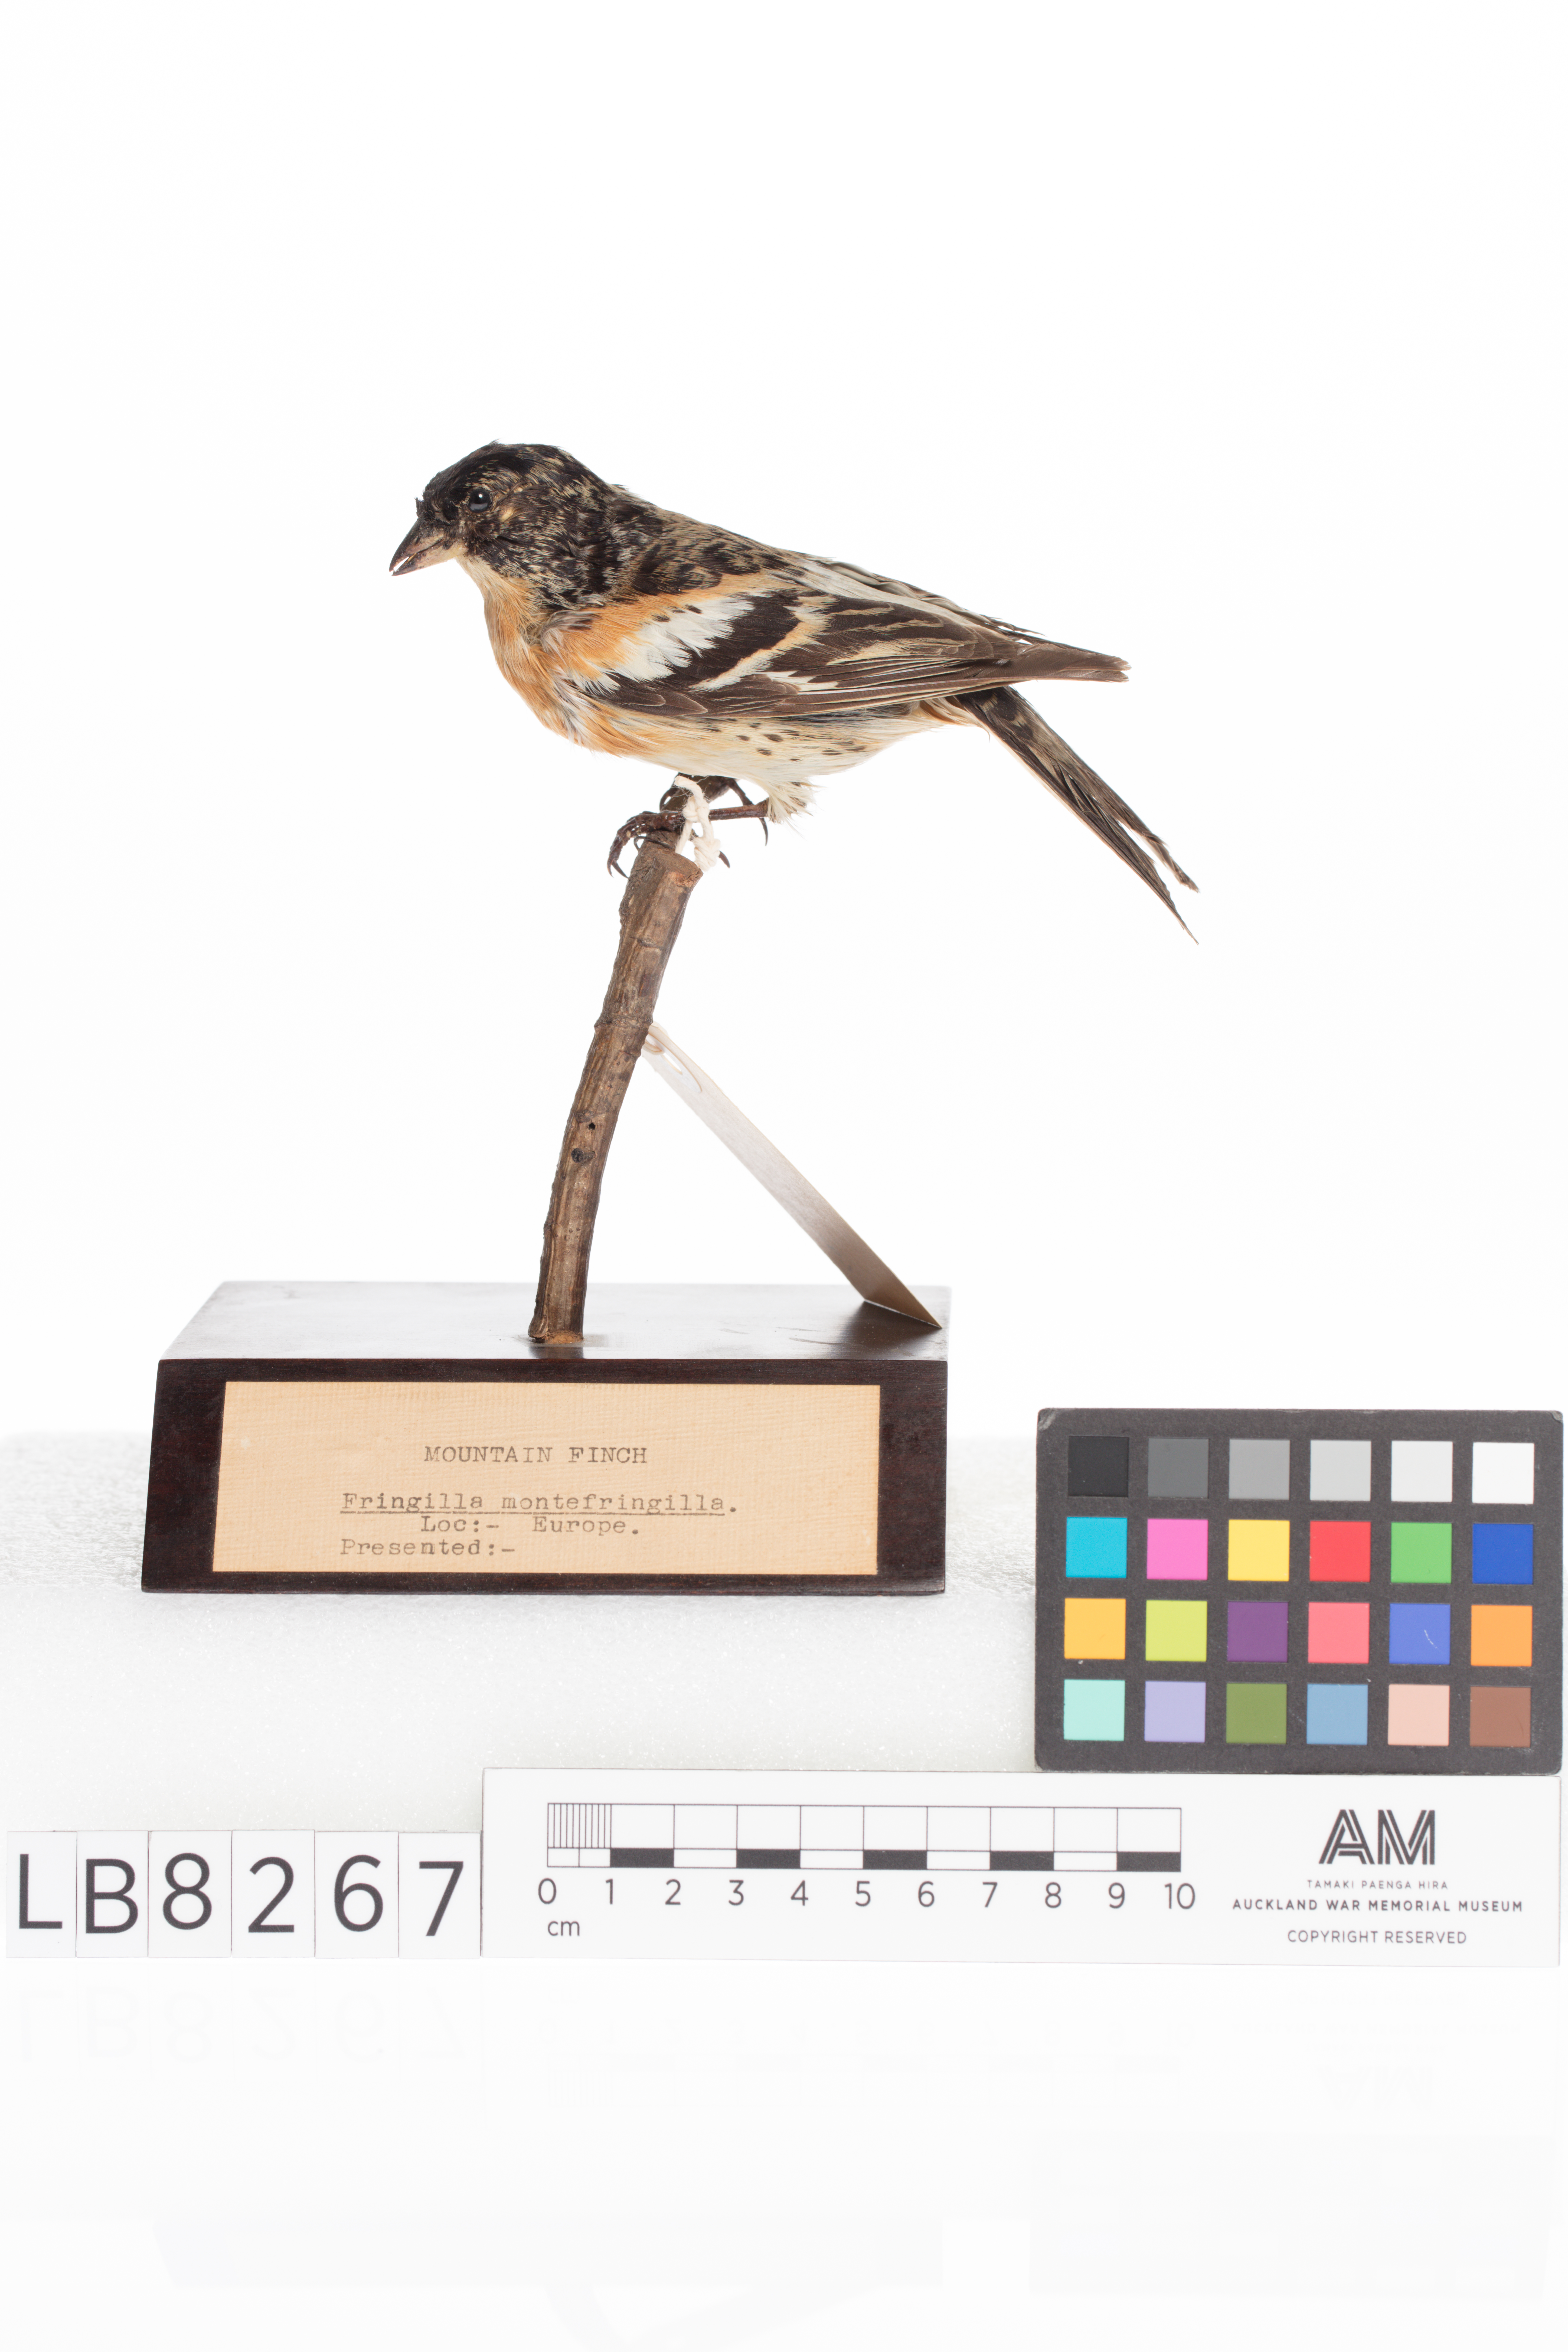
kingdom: Animalia
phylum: Chordata
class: Aves
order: Passeriformes
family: Fringillidae
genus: Fringilla
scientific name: Fringilla montifringilla
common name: Brambling
